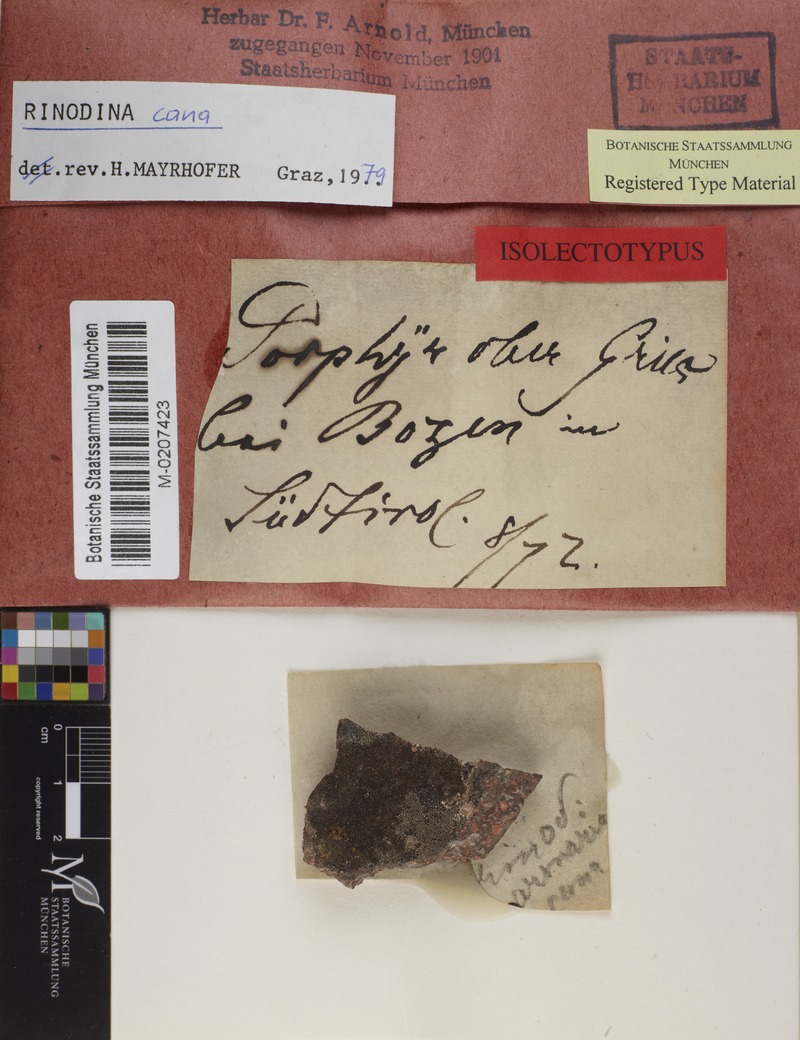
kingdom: Fungi
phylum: Ascomycota
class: Lecanoromycetes
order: Caliciales
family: Physciaceae
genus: Rinodina
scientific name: Rinodina cana
